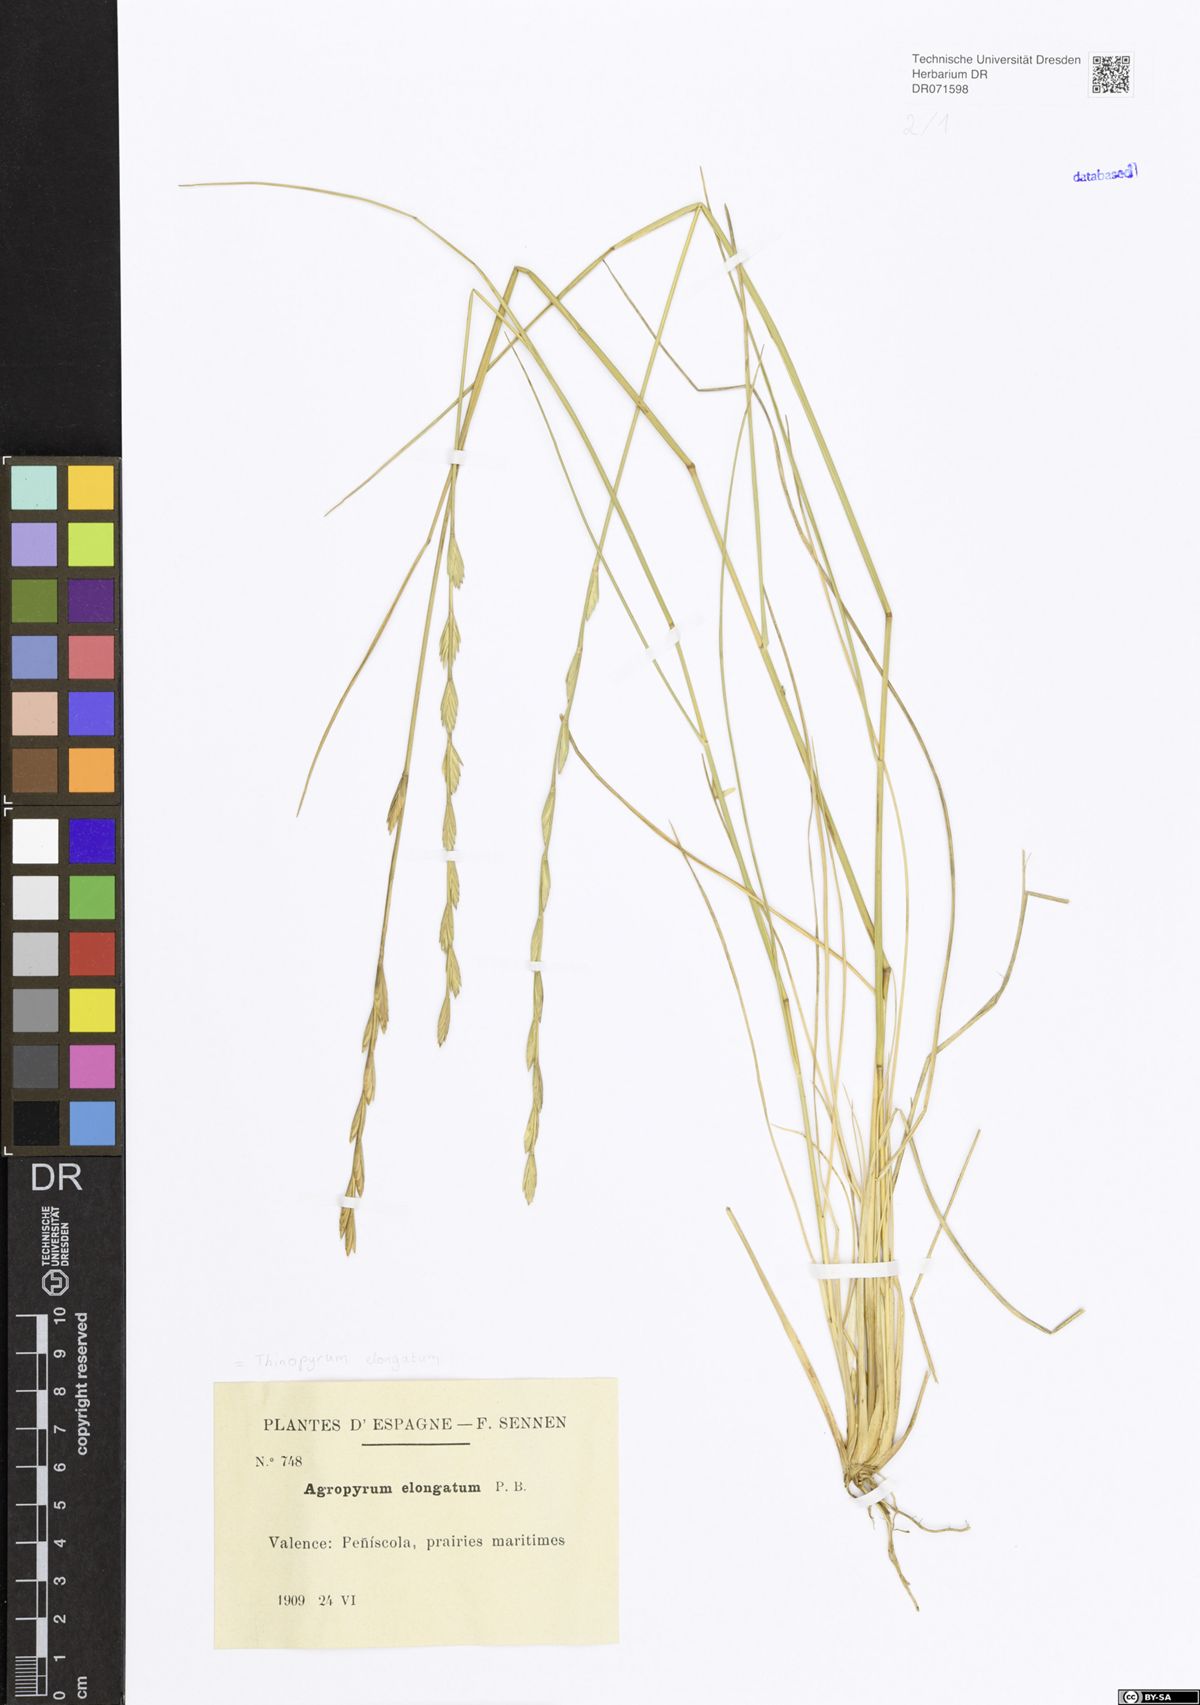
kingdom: Plantae
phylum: Tracheophyta
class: Liliopsida
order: Poales
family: Poaceae
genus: Thinopyrum
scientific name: Thinopyrum elongatum
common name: Tall wheatgrass
